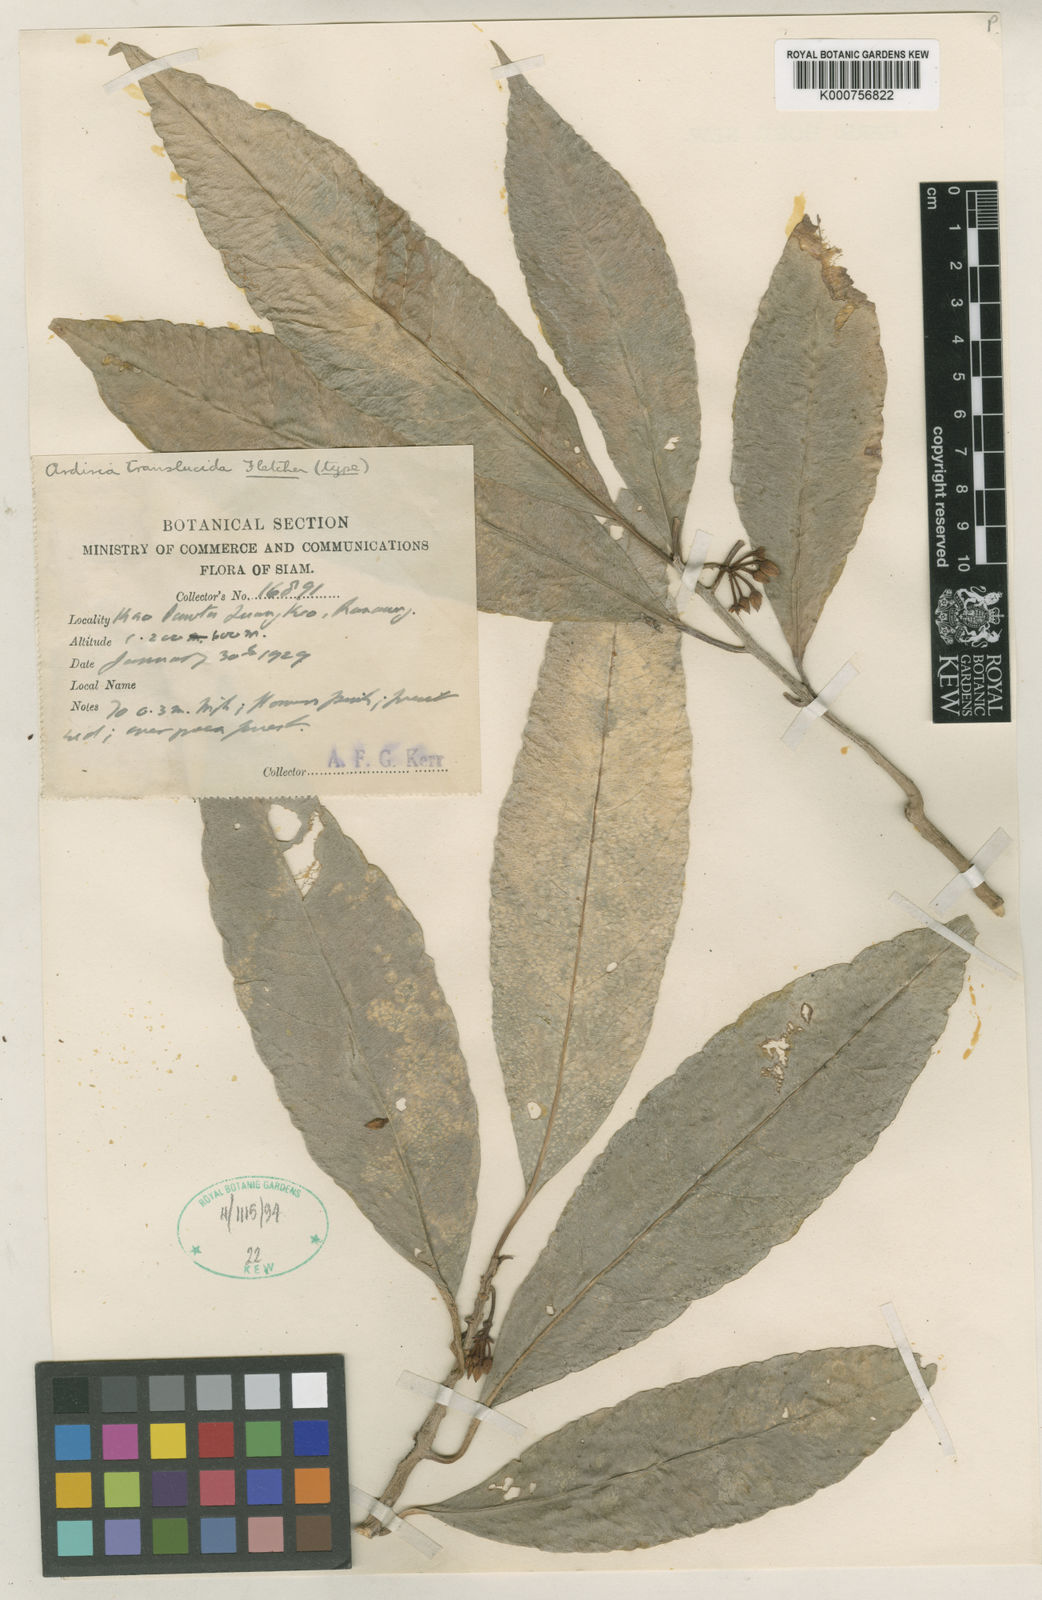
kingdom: Plantae
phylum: Tracheophyta
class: Magnoliopsida
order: Ericales
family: Primulaceae
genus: Ardisia
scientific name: Ardisia translucida
